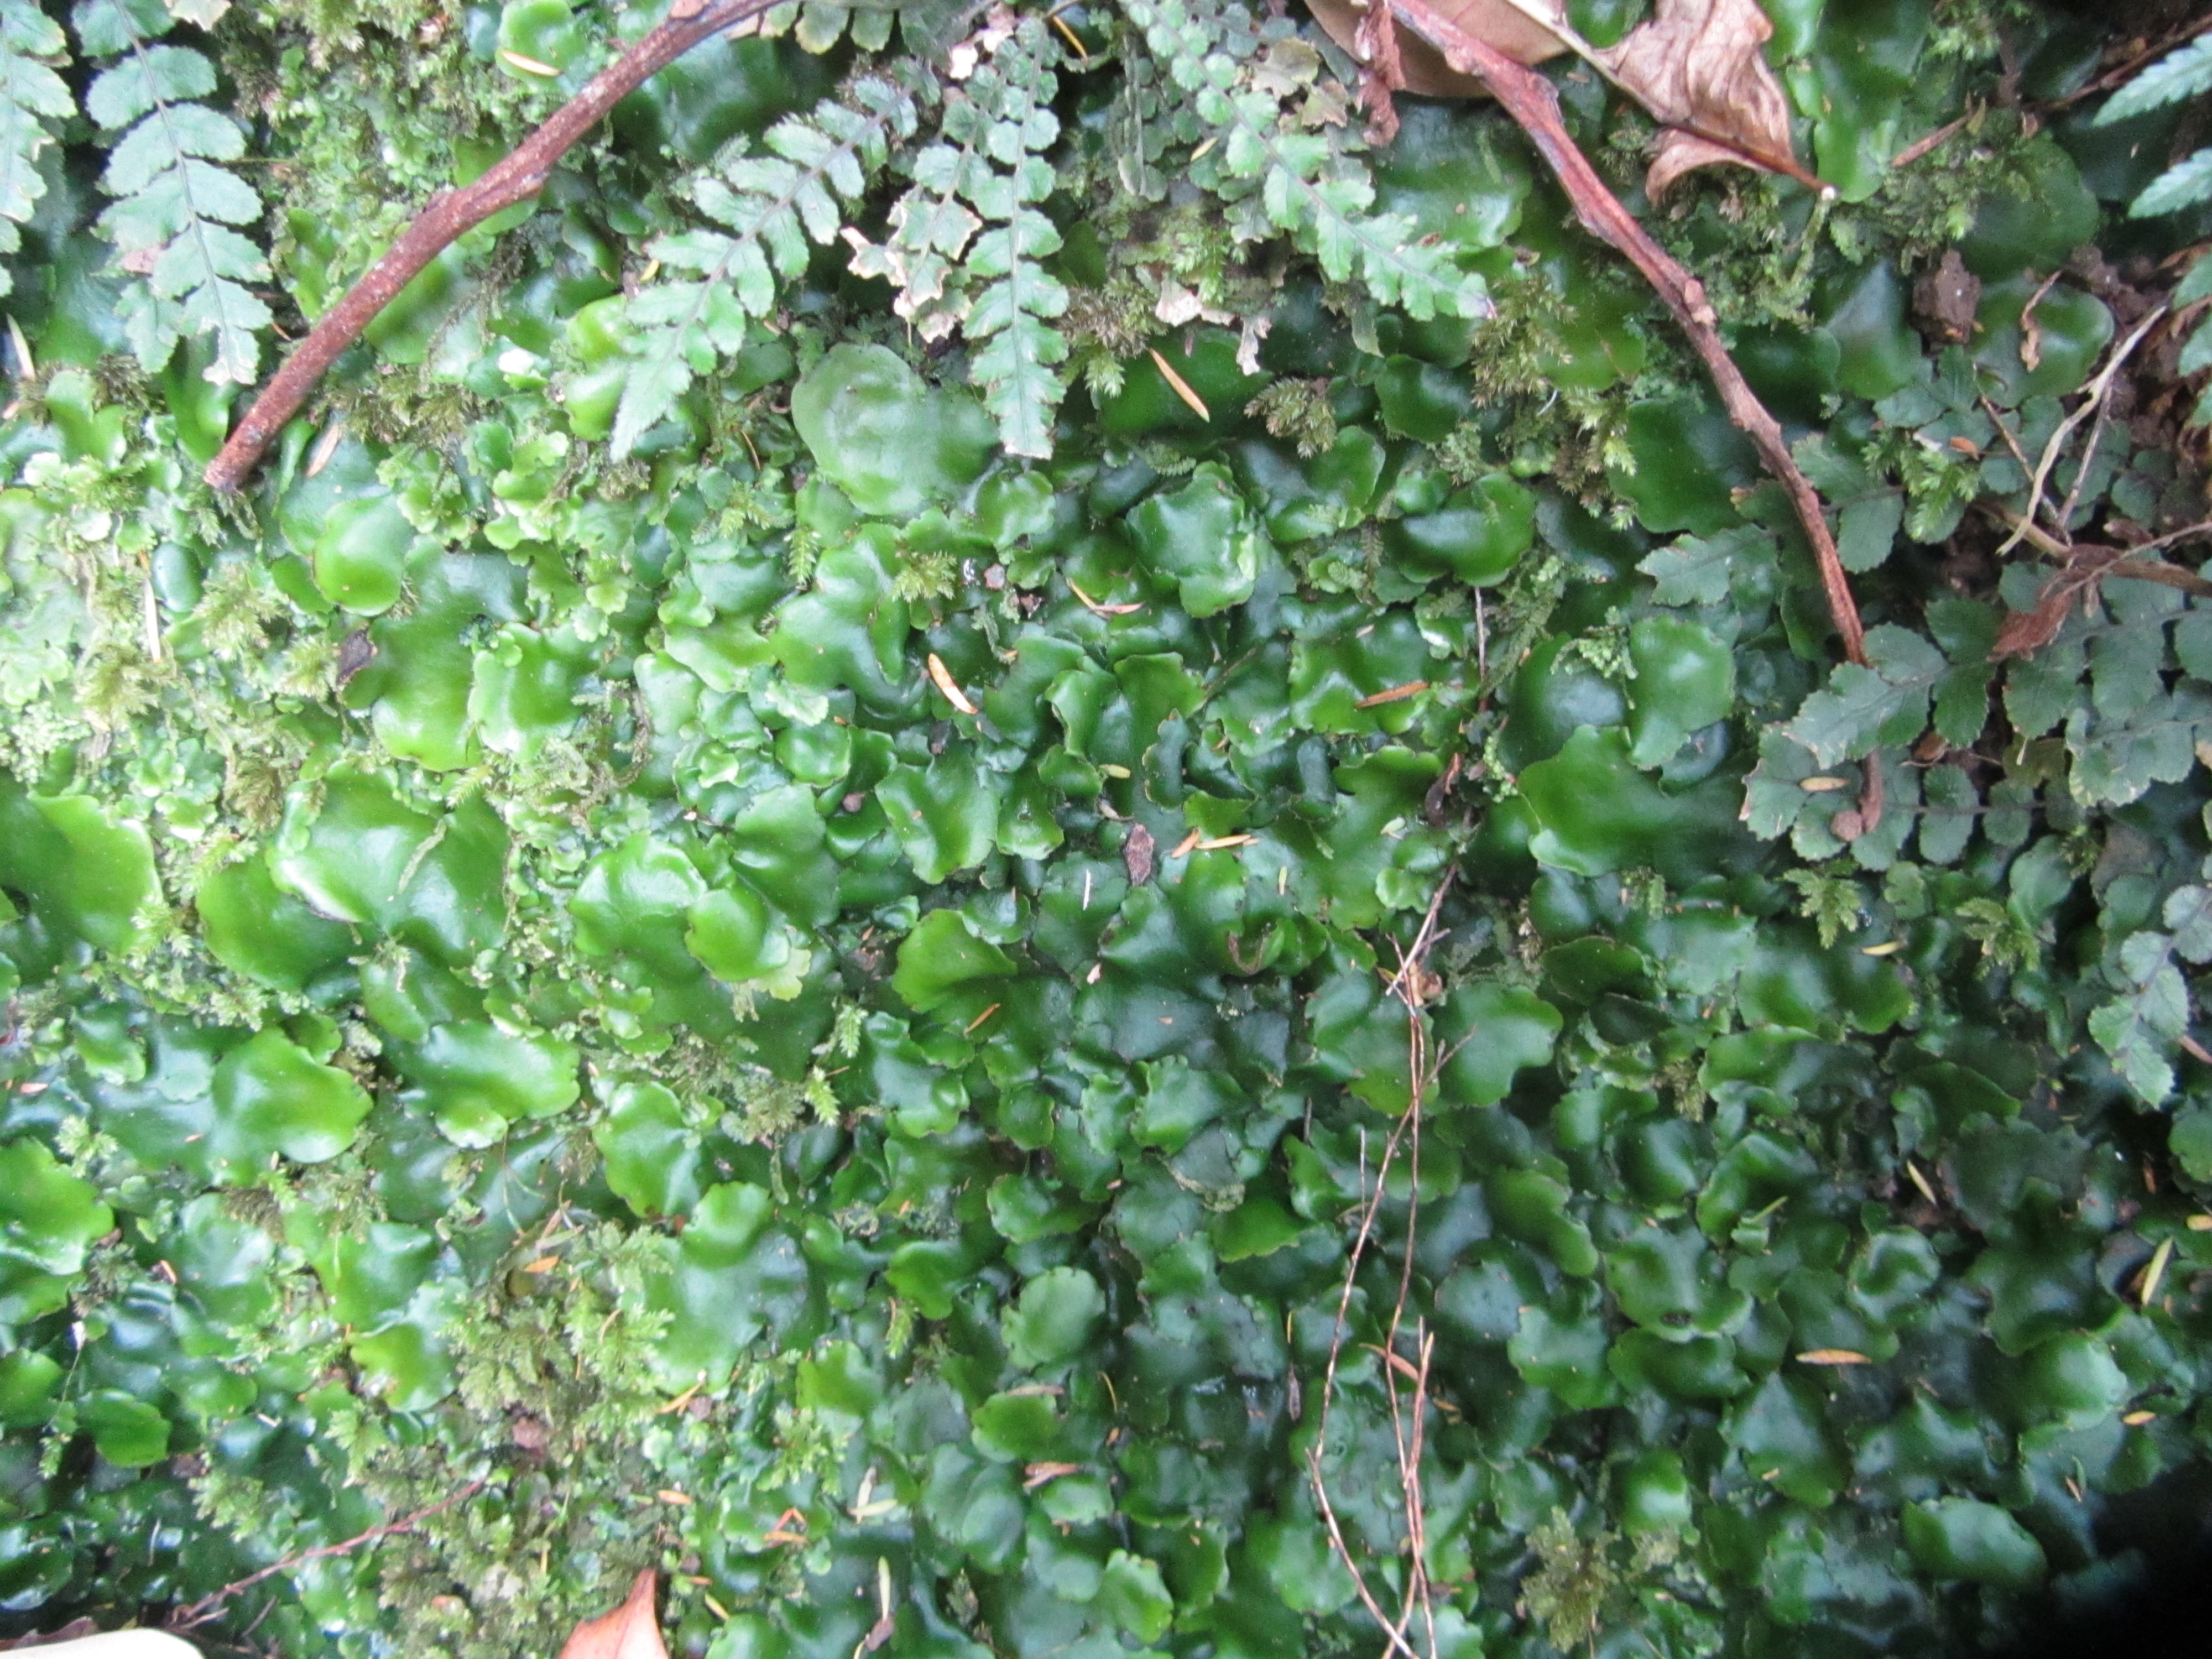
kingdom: Plantae
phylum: Marchantiophyta
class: Marchantiopsida
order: Marchantiales
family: Monocleaceae
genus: Monoclea
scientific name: Monoclea forsteri
